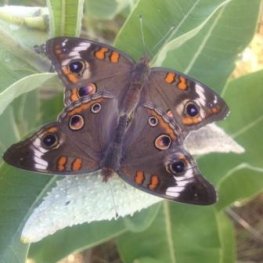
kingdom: Animalia
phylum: Arthropoda
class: Insecta
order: Lepidoptera
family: Nymphalidae
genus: Junonia
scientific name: Junonia coenia
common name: Common Buckeye
